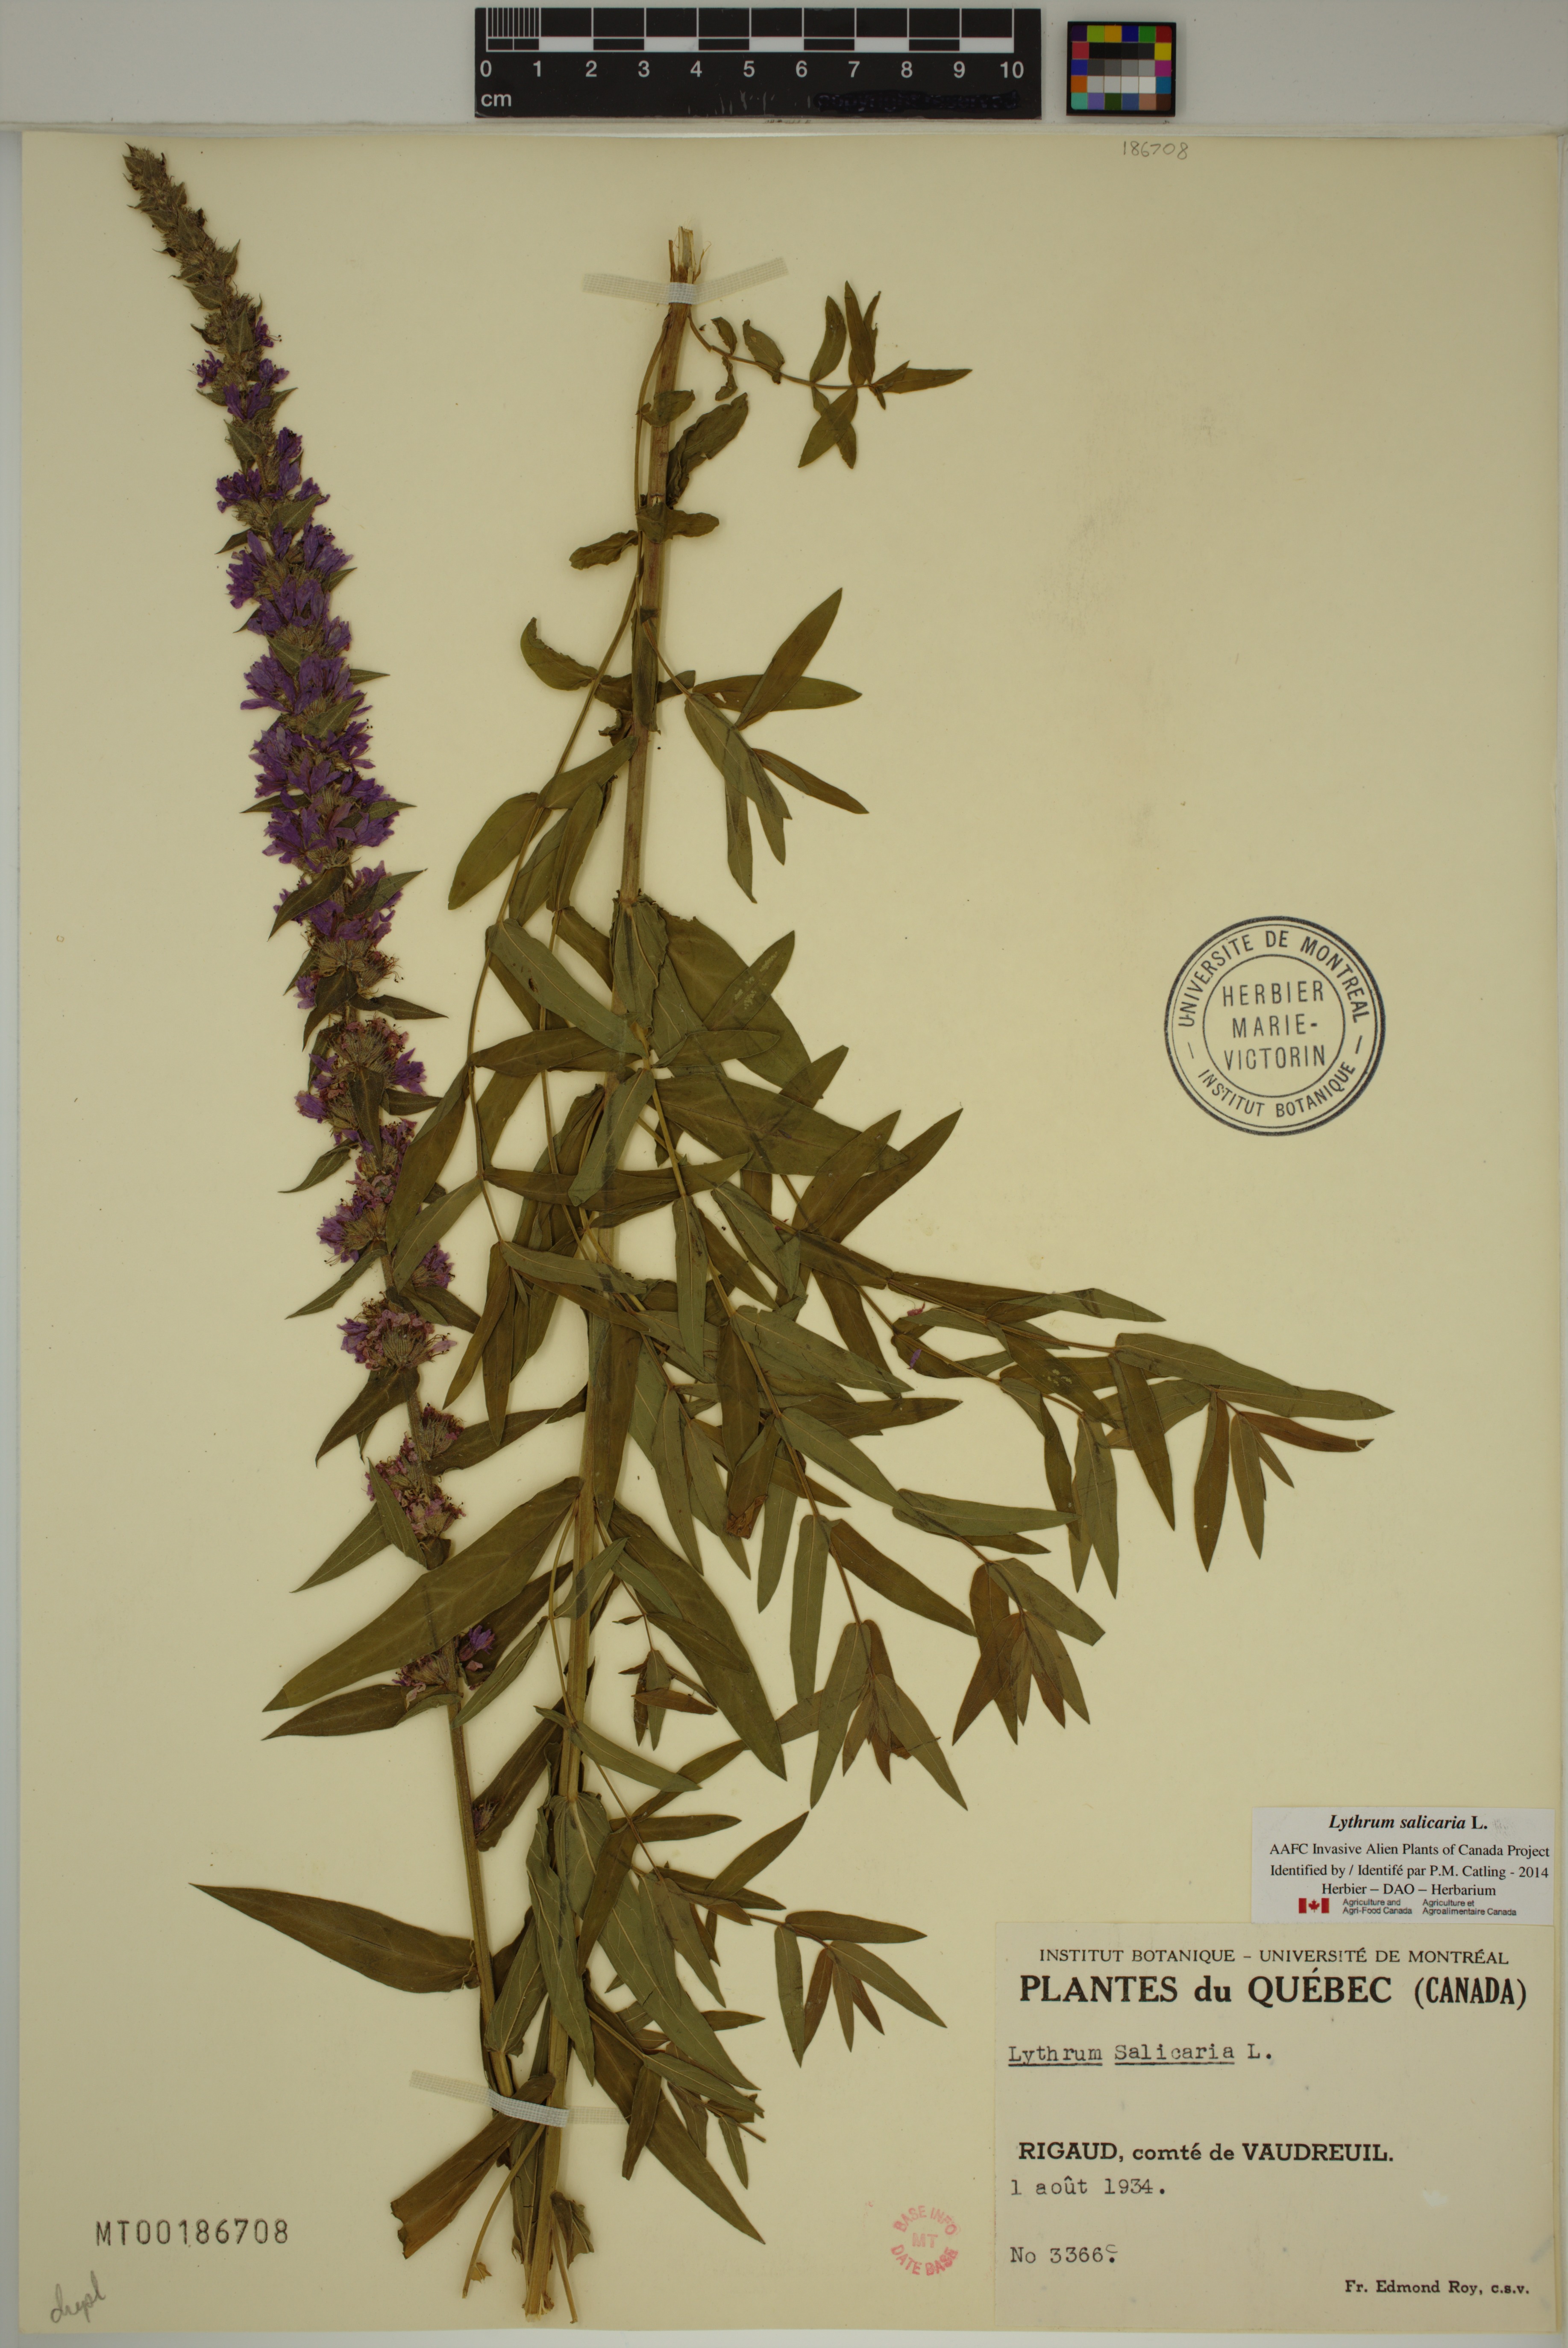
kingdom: Plantae
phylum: Tracheophyta
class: Magnoliopsida
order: Myrtales
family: Lythraceae
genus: Lythrum
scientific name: Lythrum salicaria
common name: Purple loosestrife
